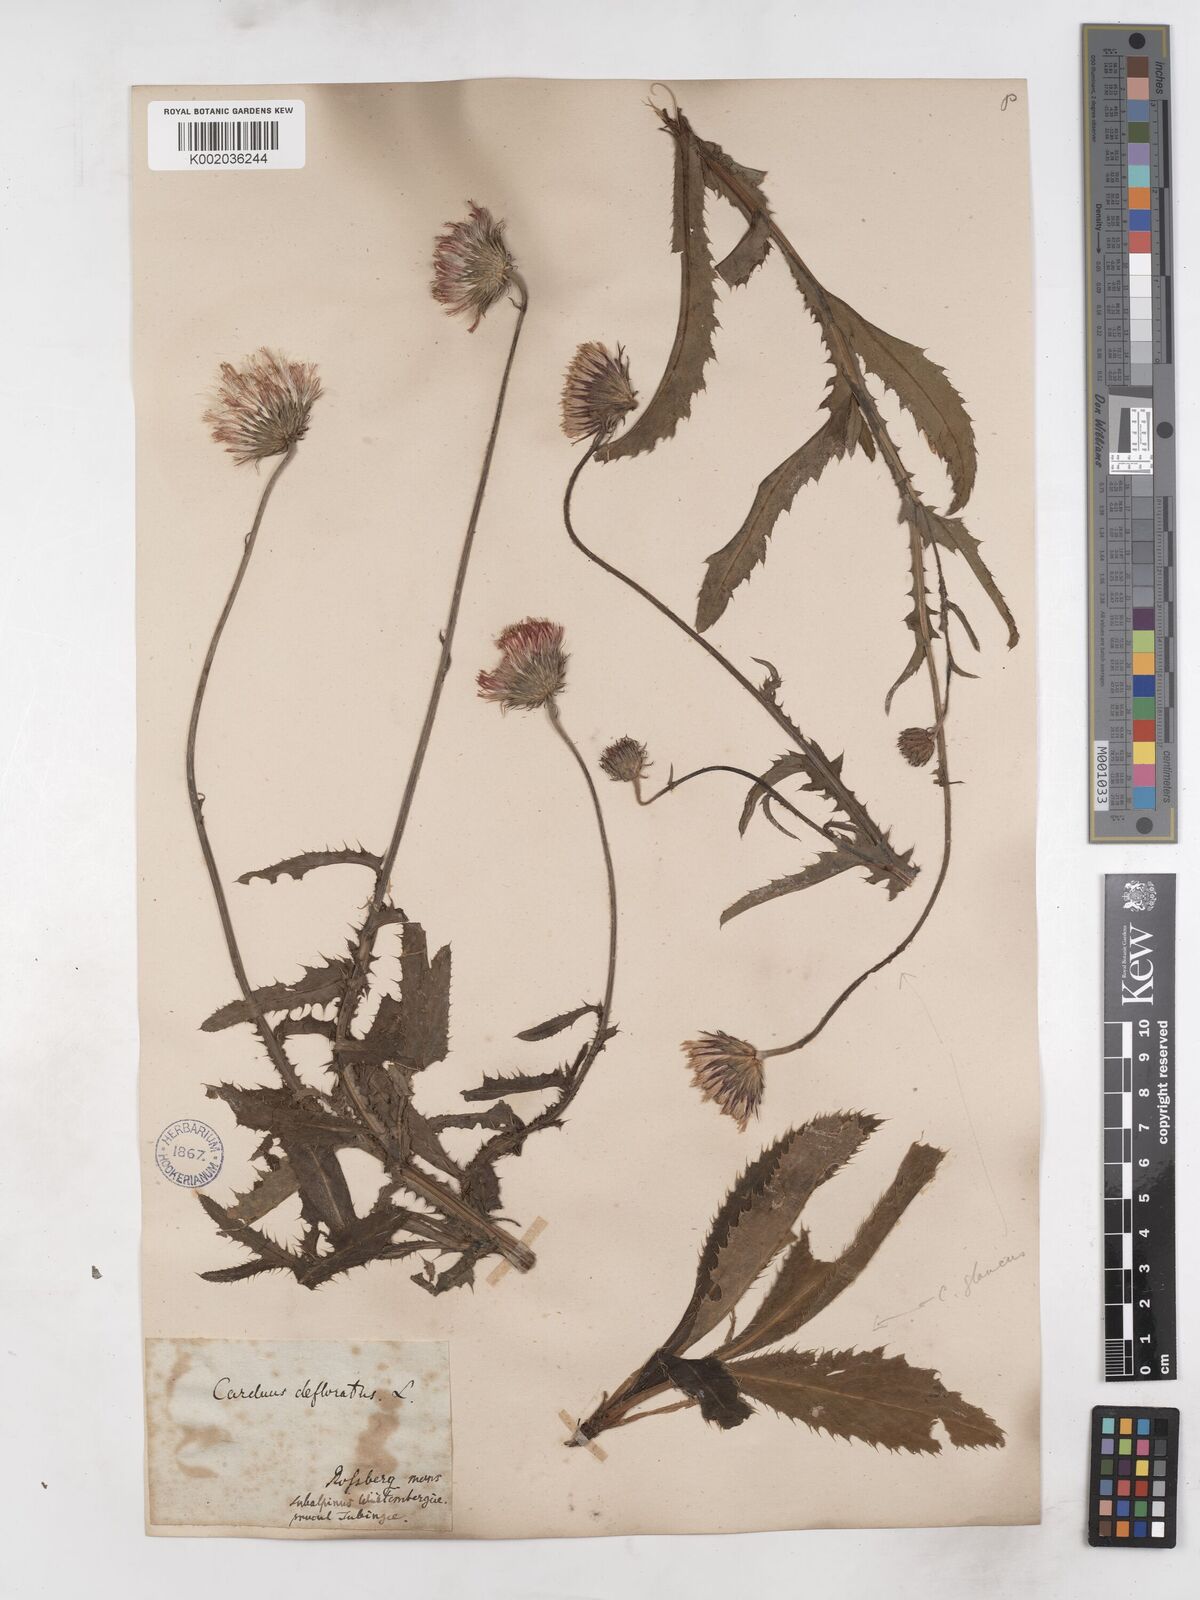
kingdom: Plantae
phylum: Tracheophyta
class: Magnoliopsida
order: Asterales
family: Asteraceae
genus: Carduus
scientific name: Carduus defloratus
